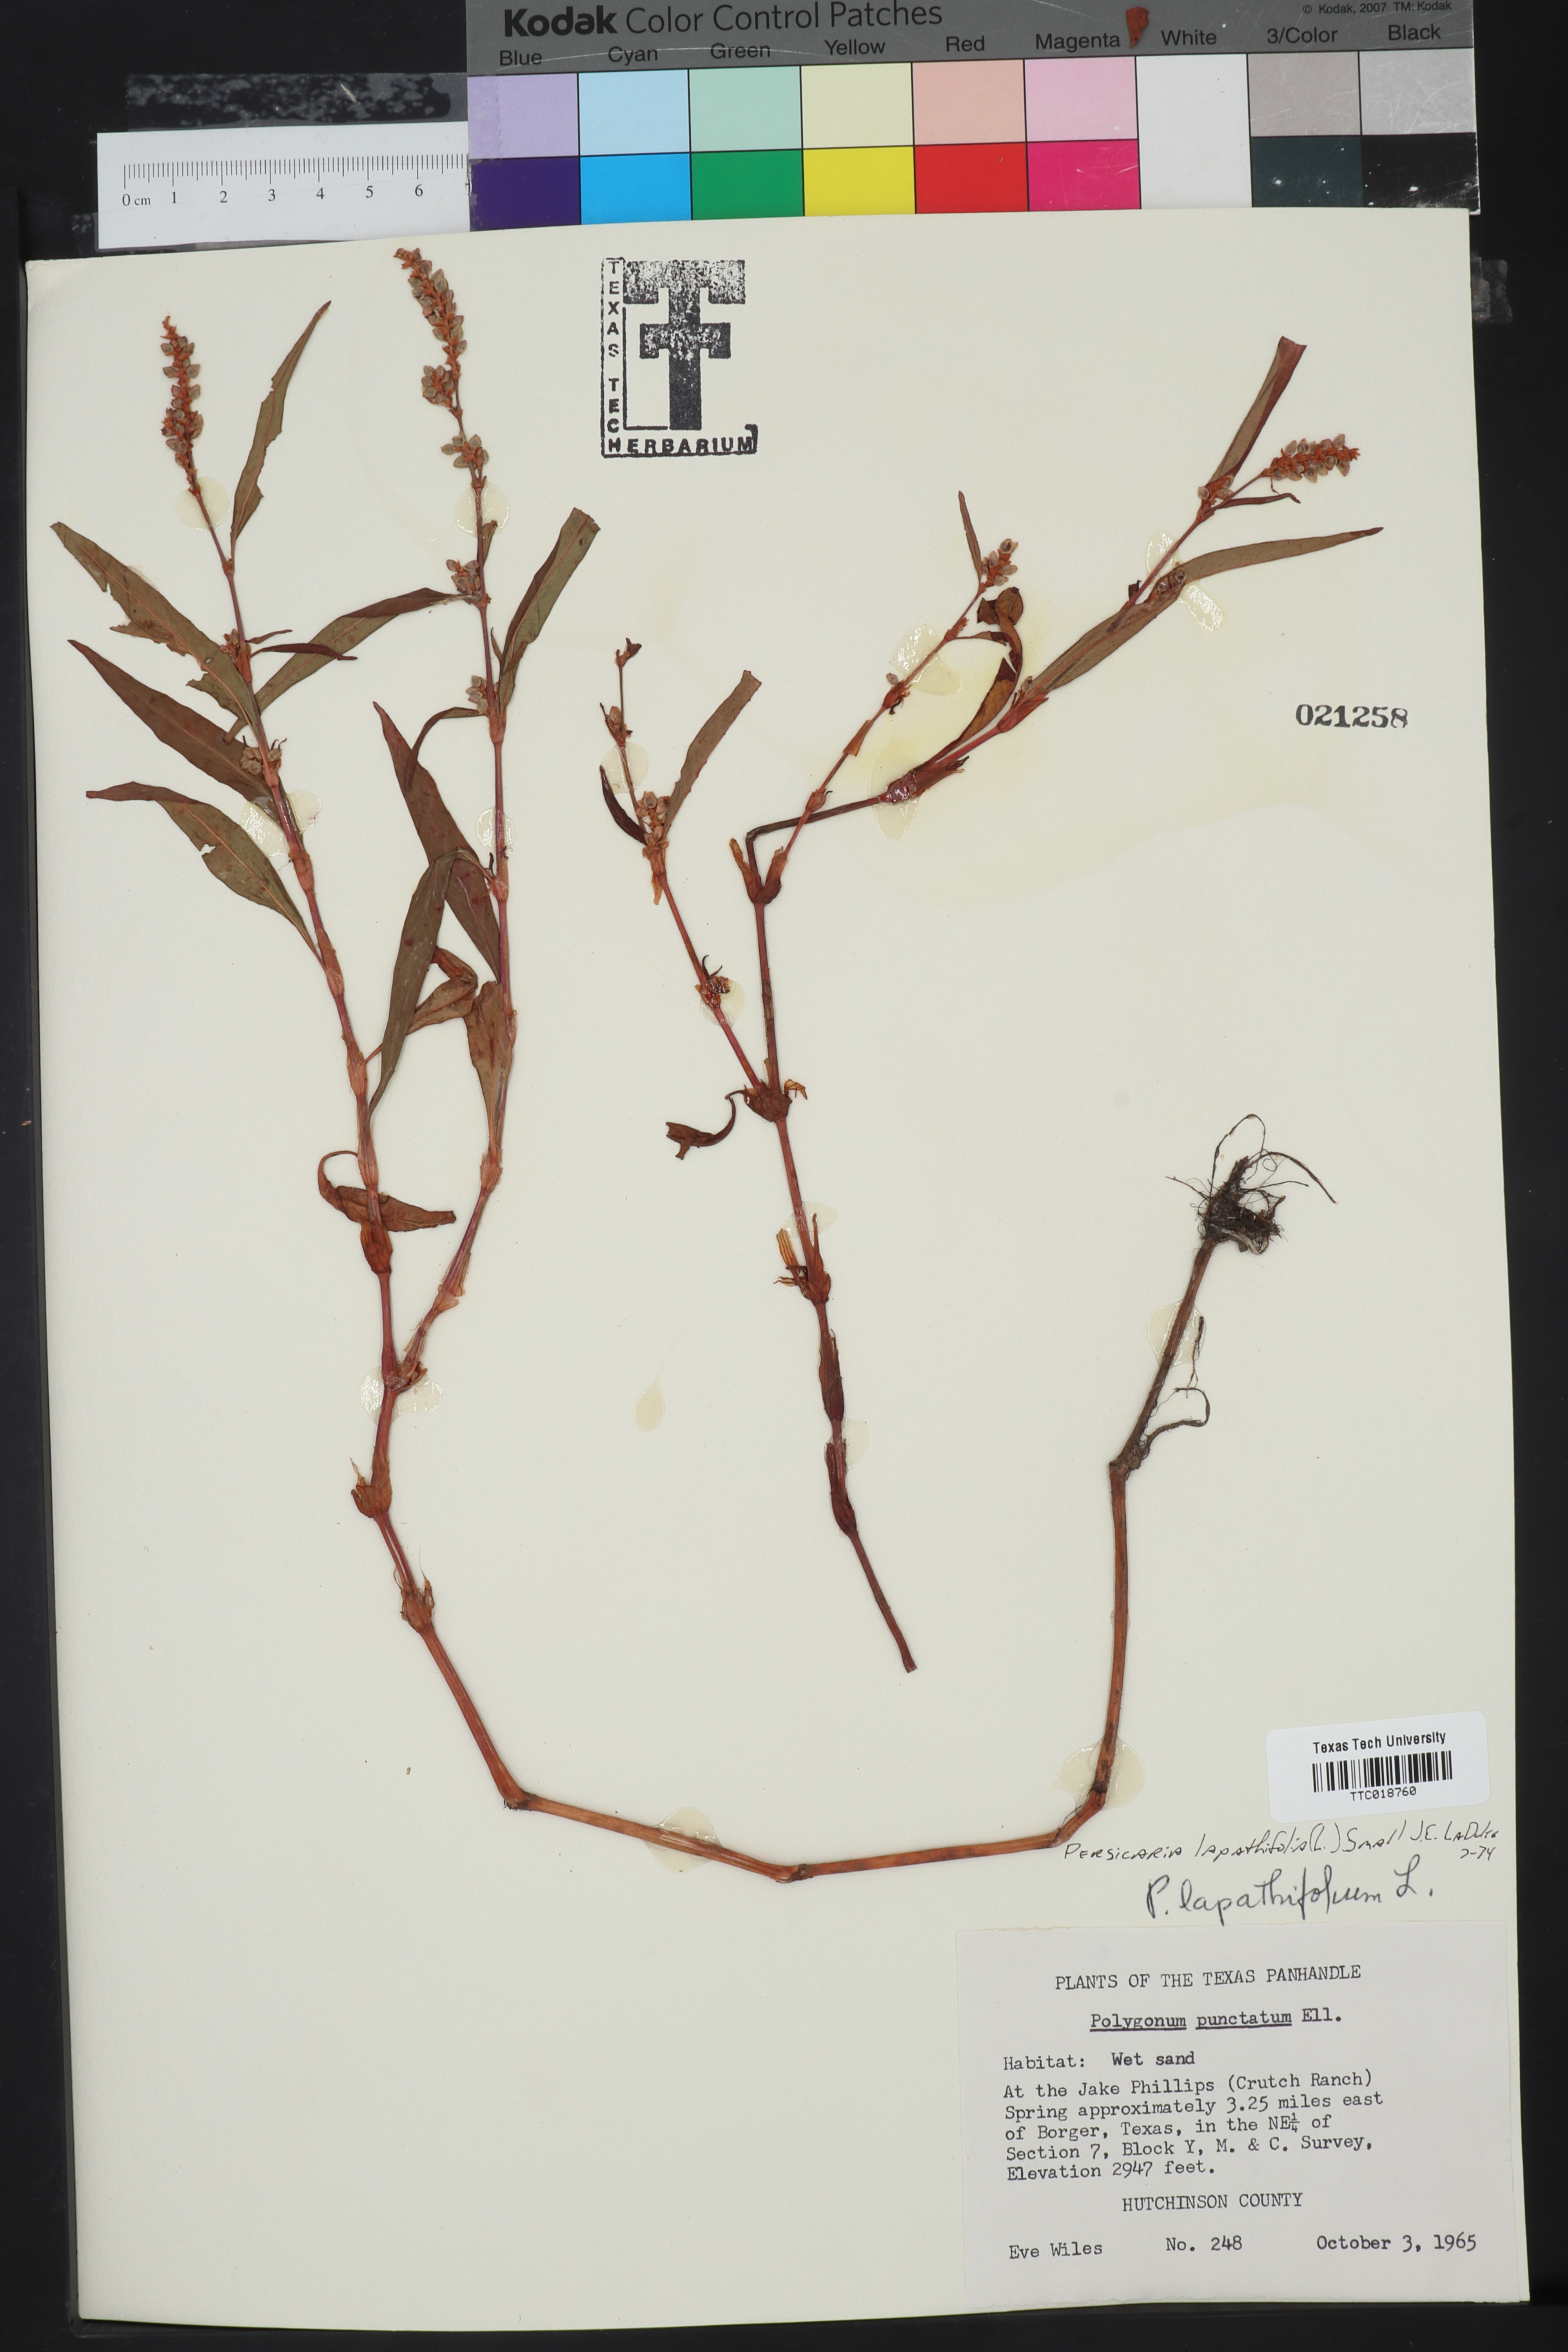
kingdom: Plantae
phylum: Tracheophyta
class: Magnoliopsida
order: Caryophyllales
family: Polygonaceae
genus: Persicaria
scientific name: Persicaria lapathifolia
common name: Curlytop knotweed
